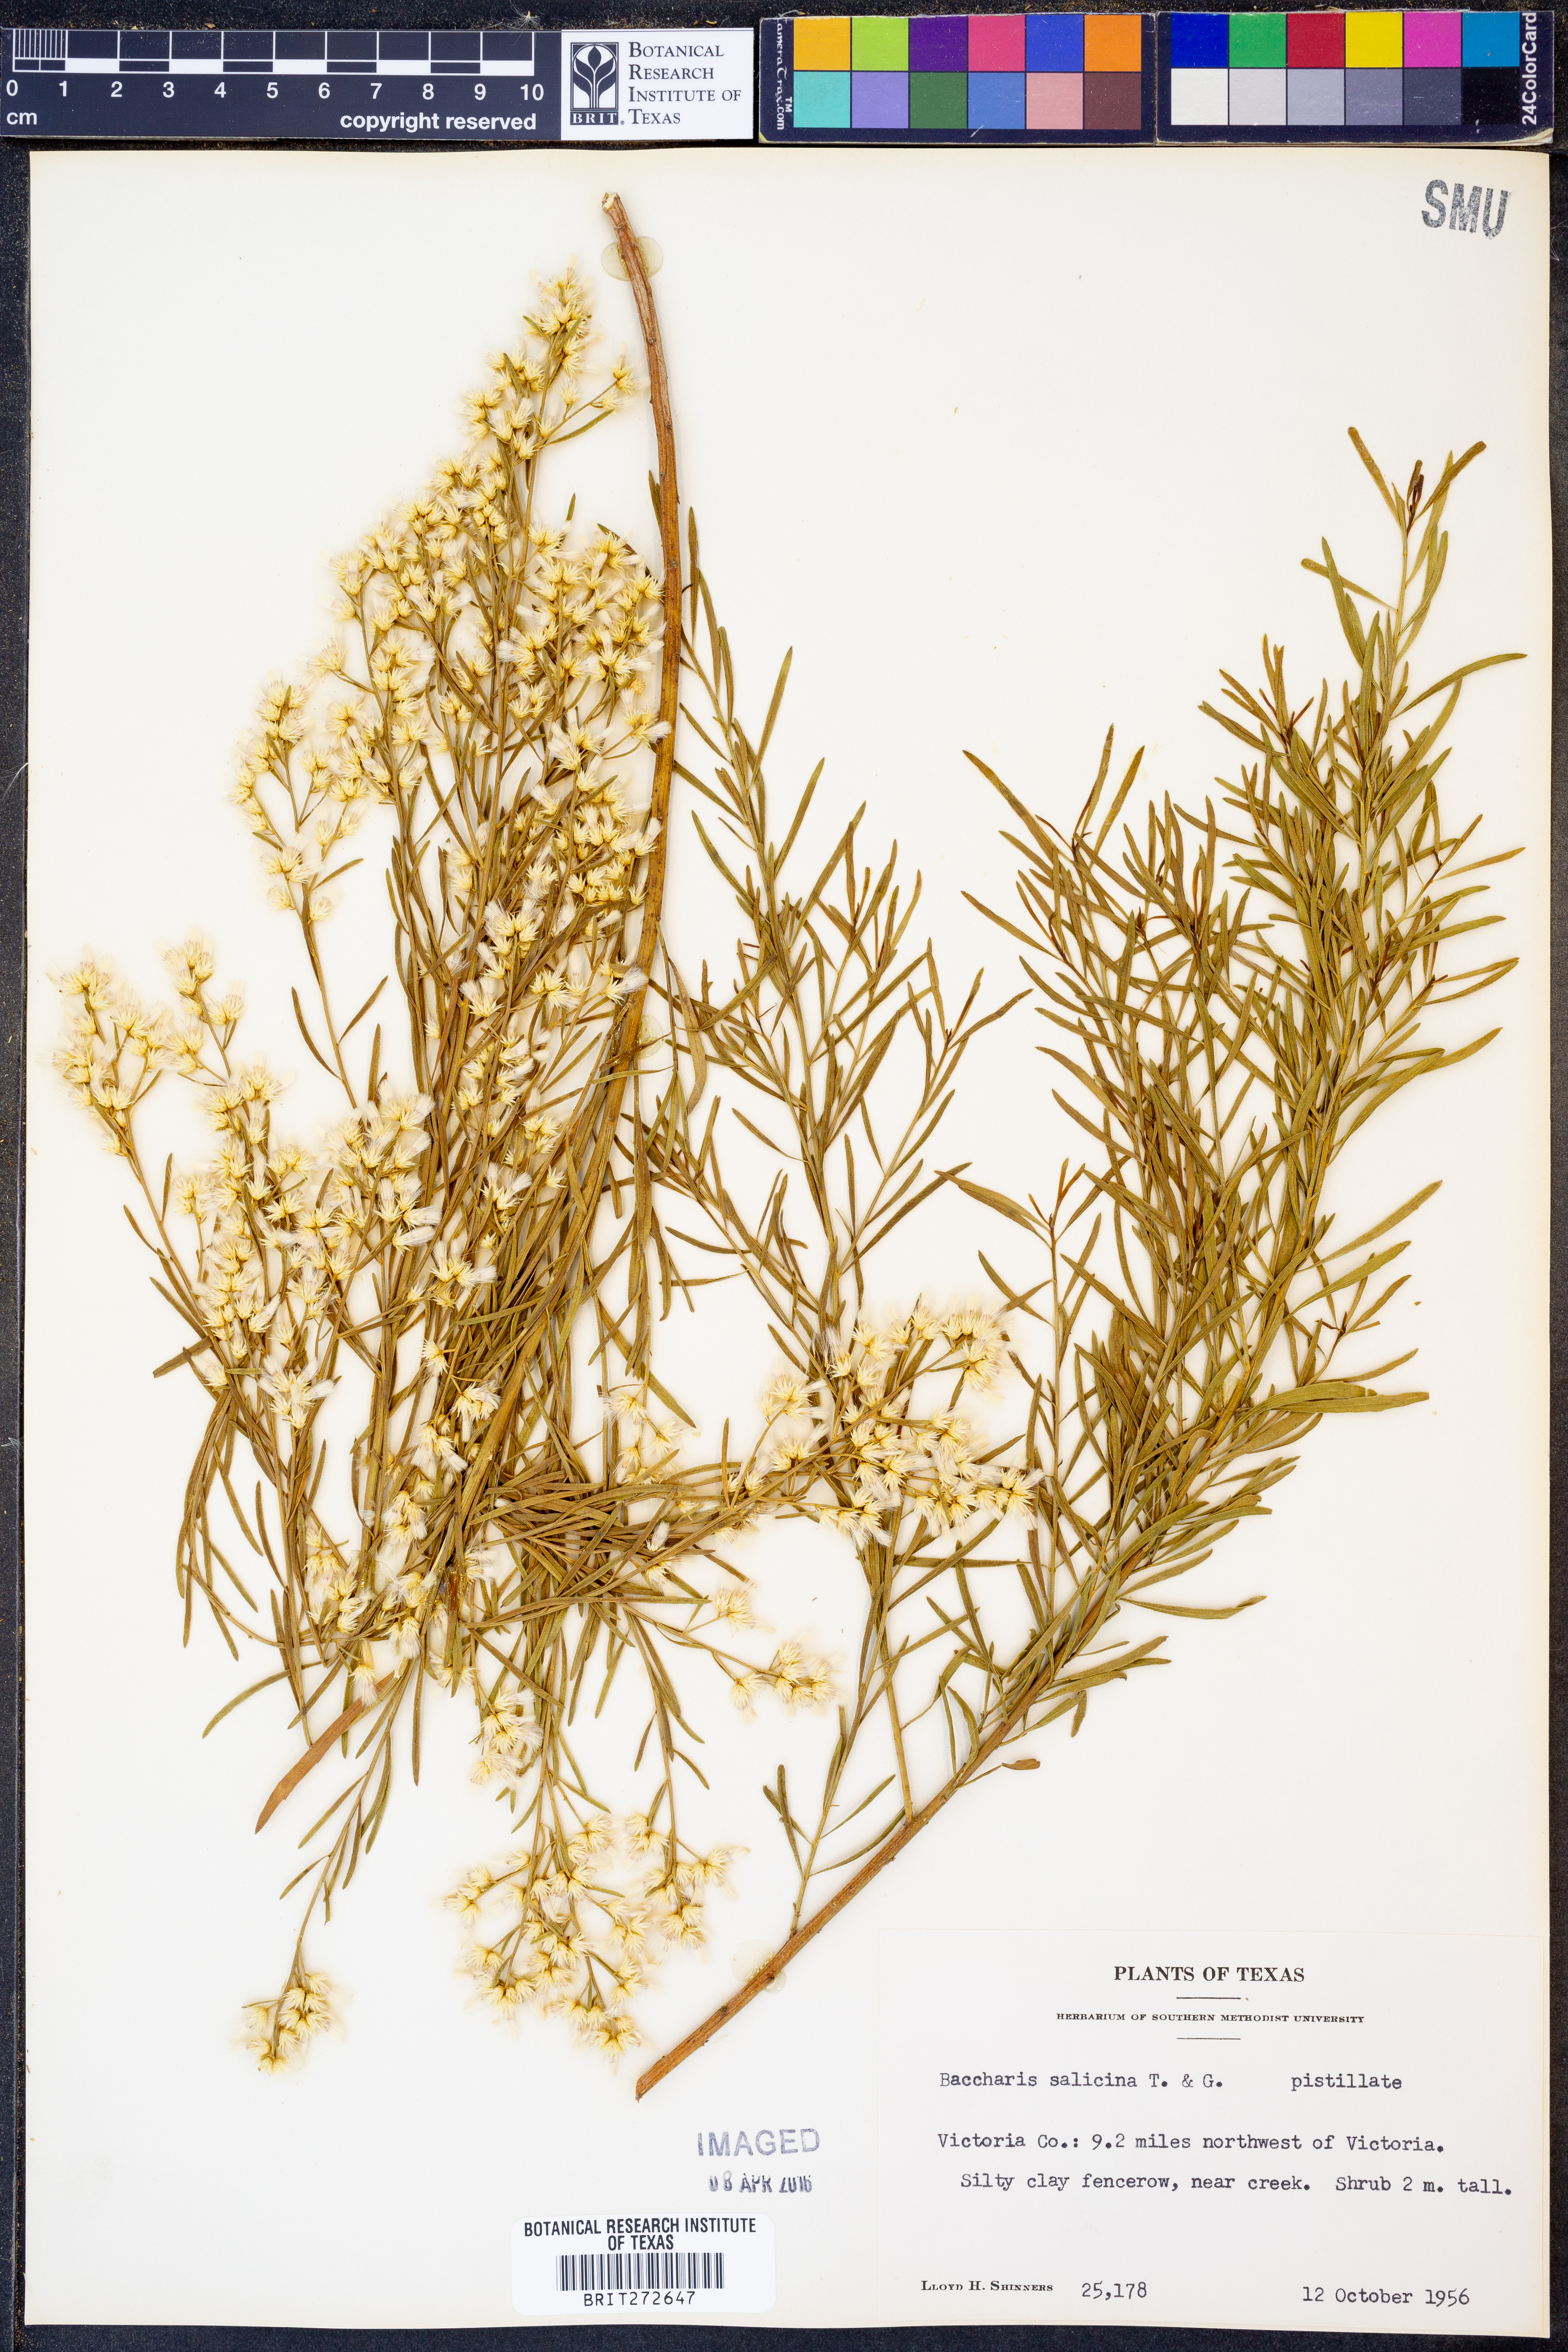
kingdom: Plantae
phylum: Tracheophyta
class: Magnoliopsida
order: Asterales
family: Asteraceae
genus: Baccharis
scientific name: Baccharis salicina
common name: Willow baccharis
